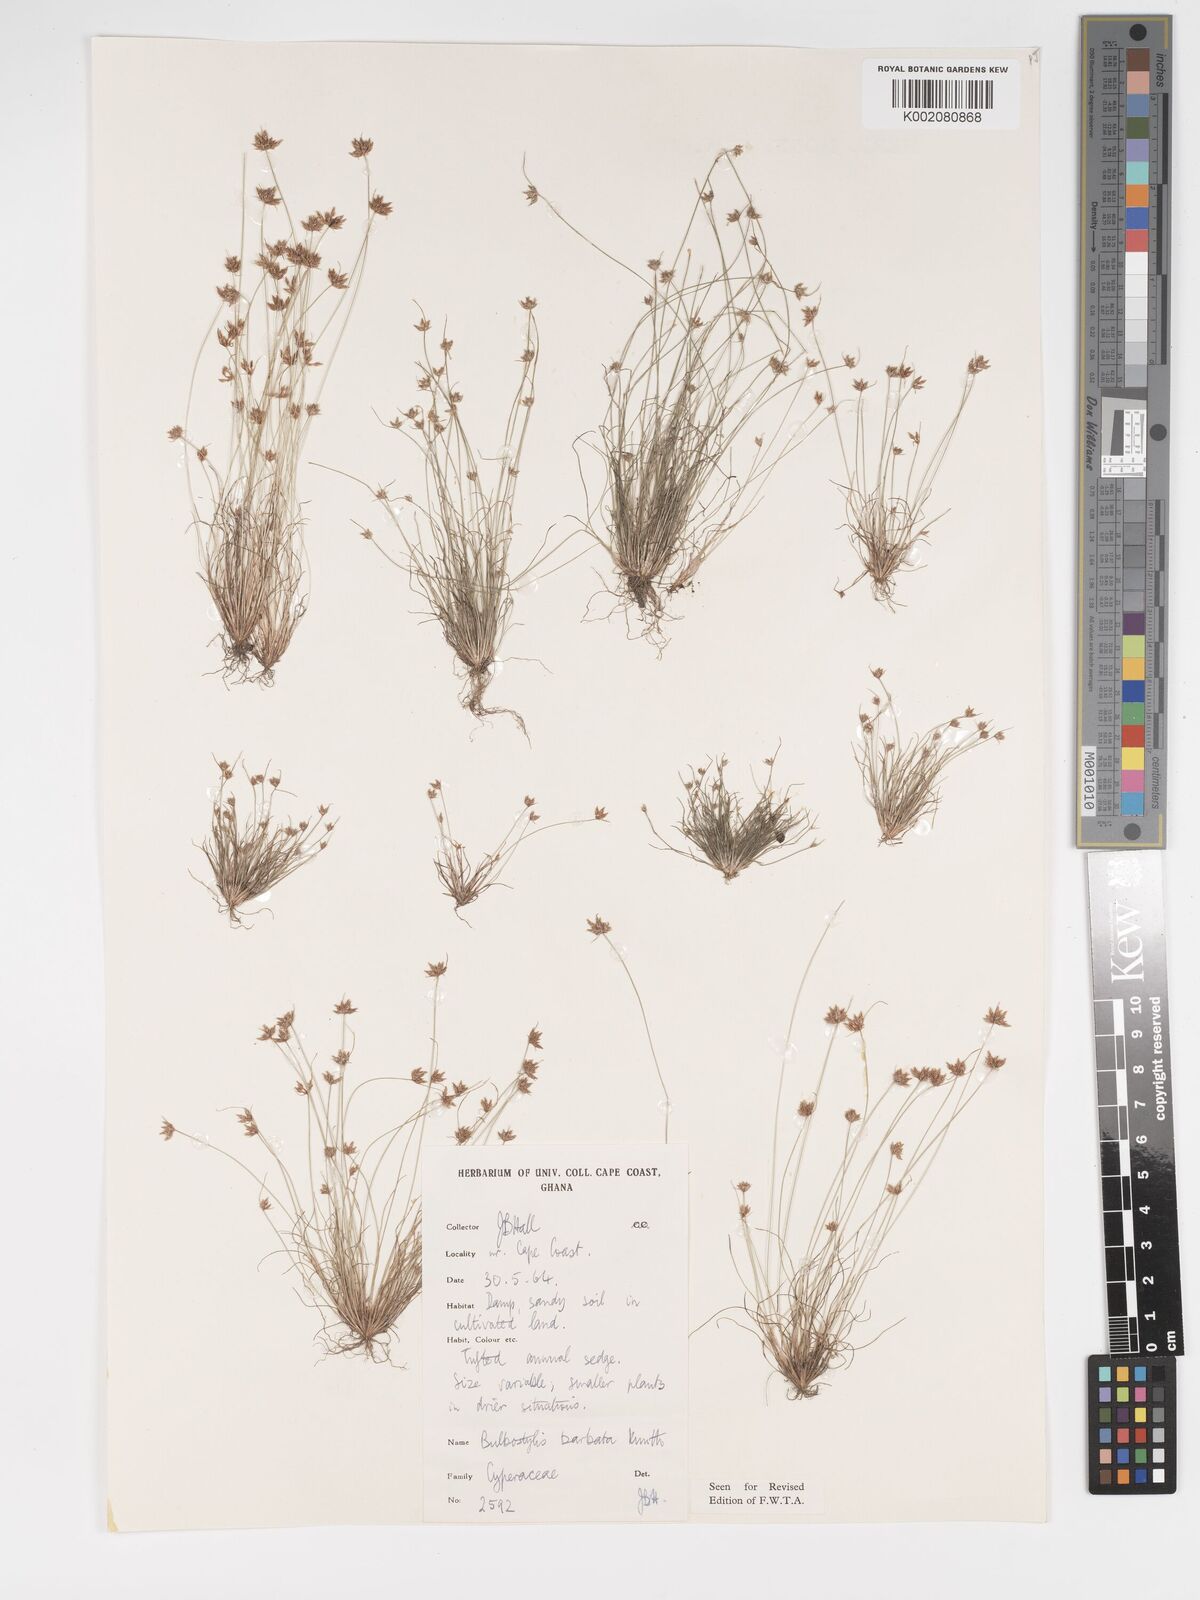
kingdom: Plantae
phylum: Tracheophyta
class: Liliopsida
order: Poales
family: Cyperaceae
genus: Bulbostylis
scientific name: Bulbostylis barbata
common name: Watergrass
